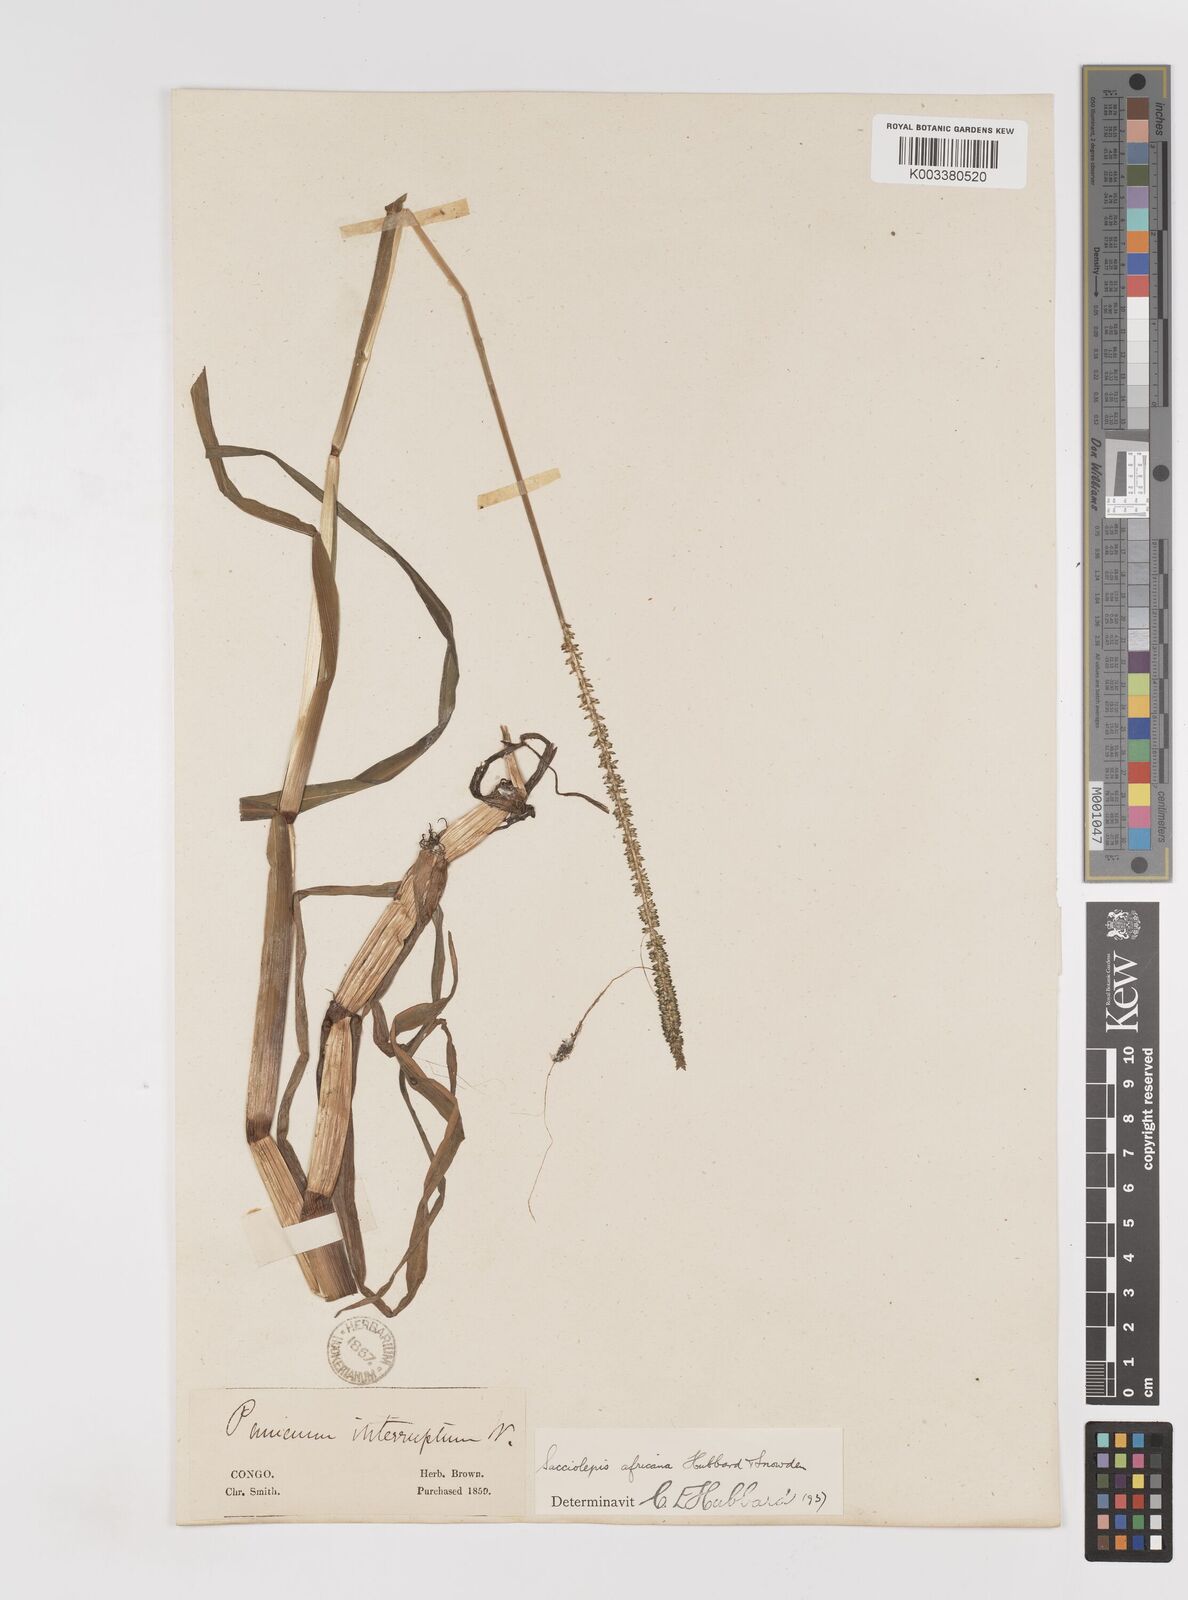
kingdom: Plantae
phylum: Tracheophyta
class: Liliopsida
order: Poales
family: Poaceae
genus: Sacciolepis
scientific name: Sacciolepis africana
